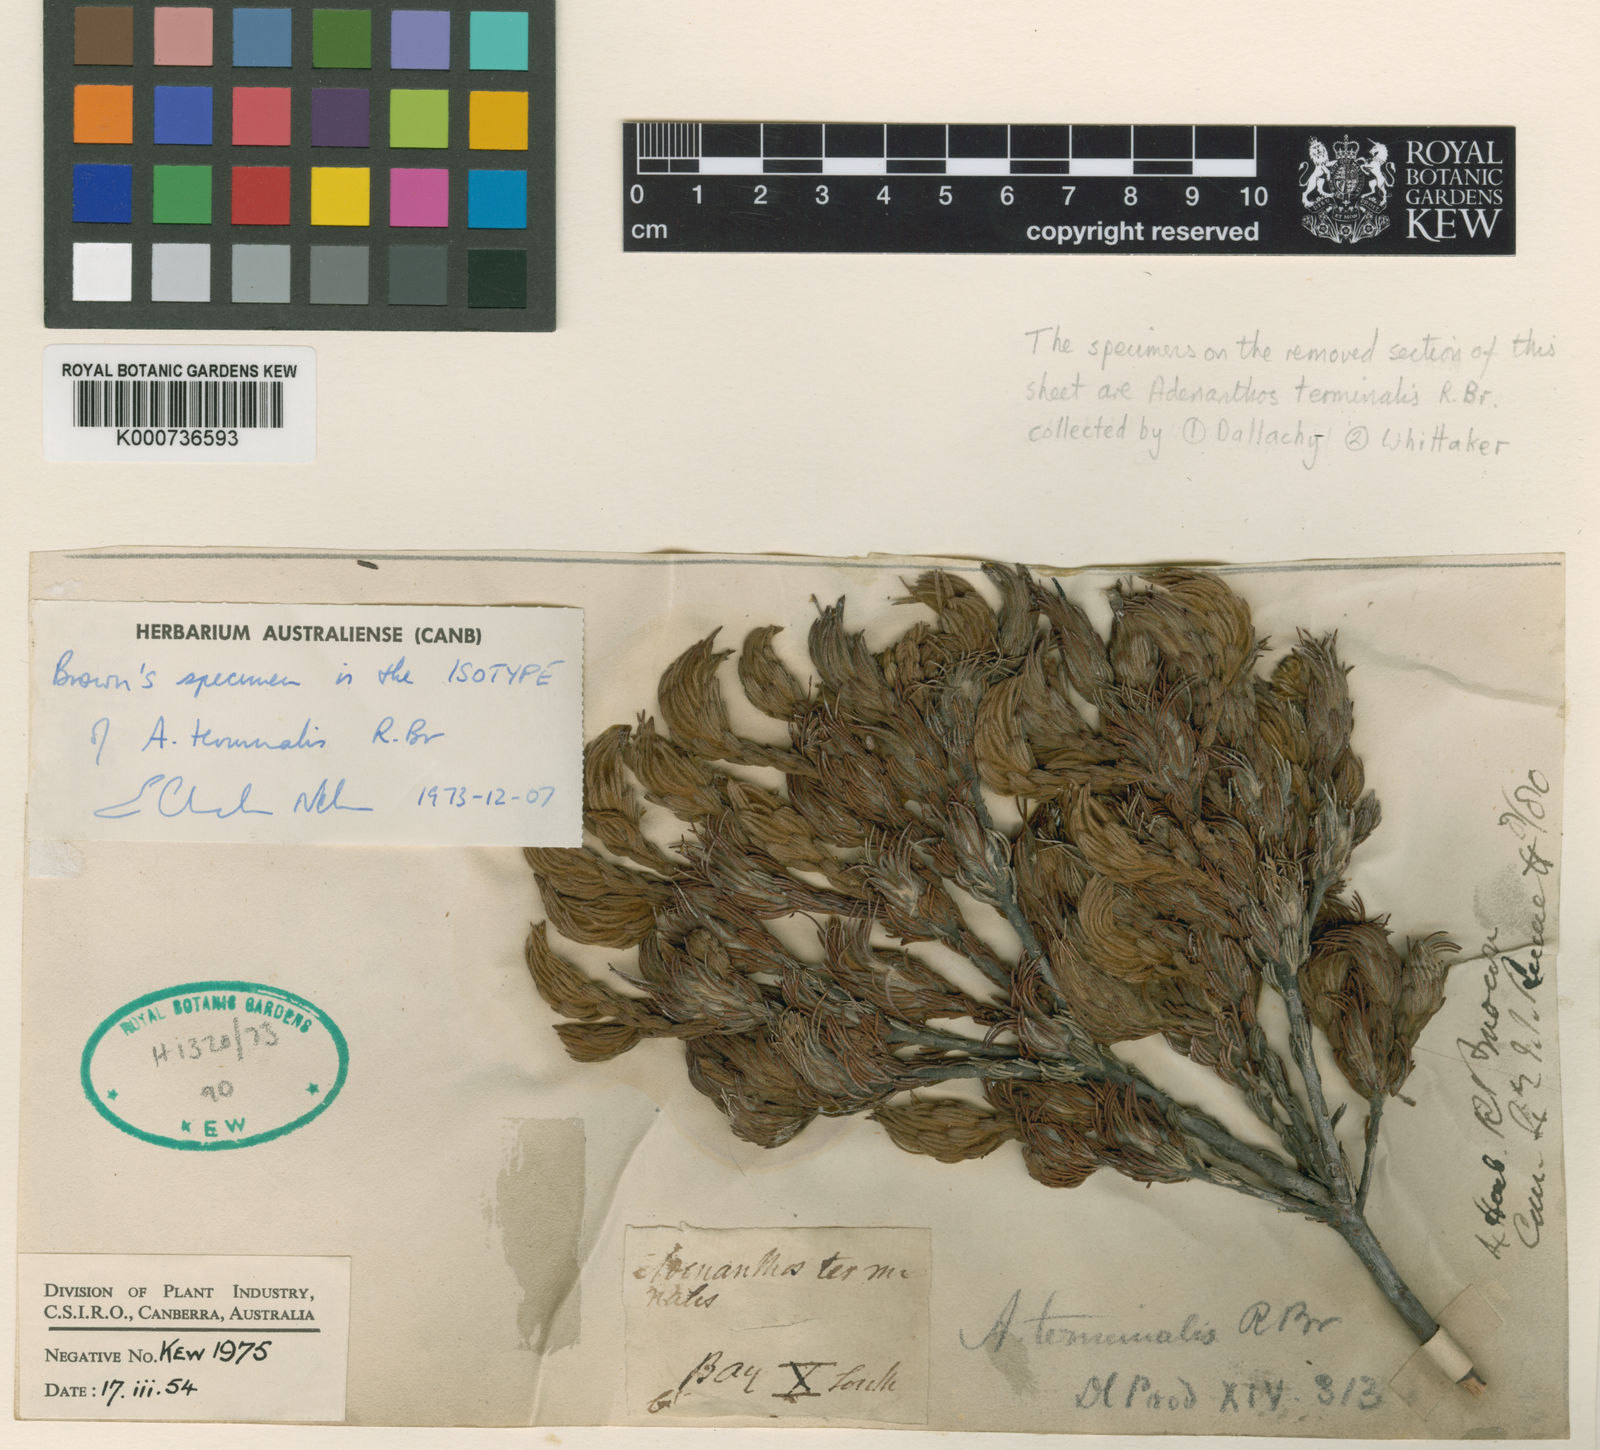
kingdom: Plantae
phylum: Tracheophyta
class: Magnoliopsida
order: Proteales
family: Proteaceae
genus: Adenanthos
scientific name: Adenanthos terminalis
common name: Yellow gland-flower
